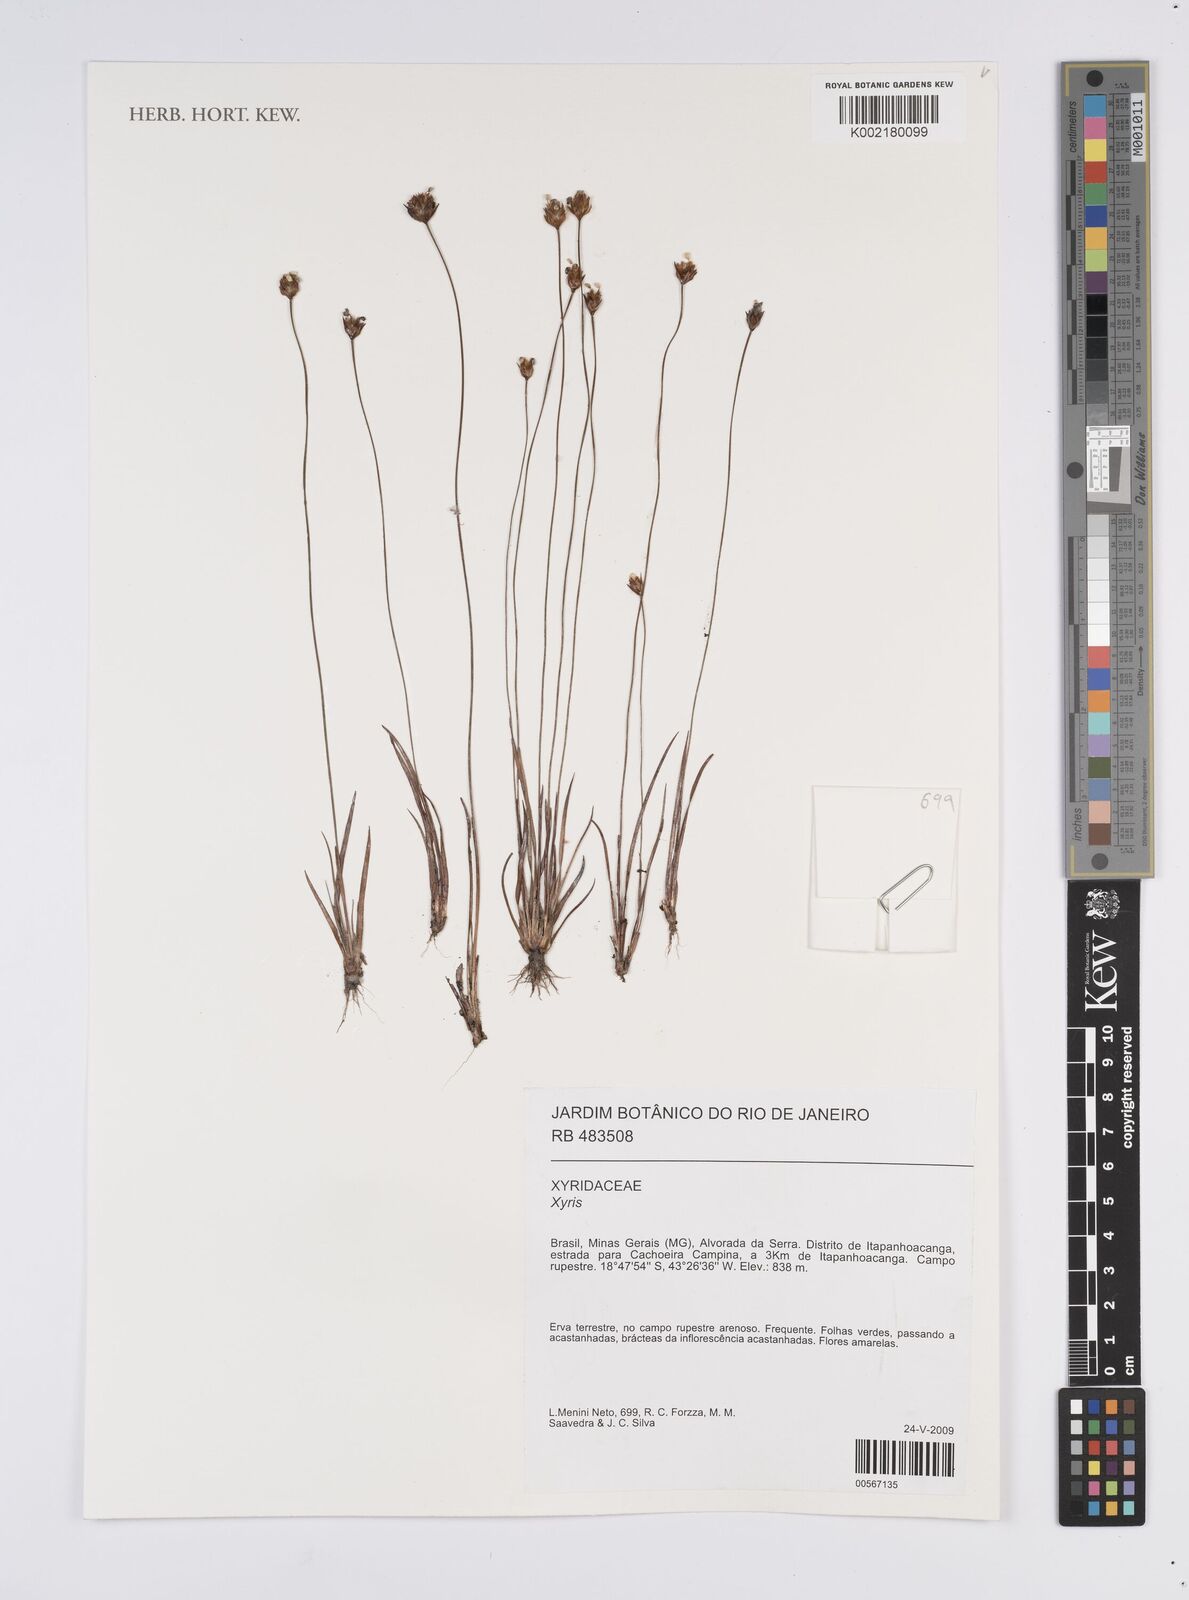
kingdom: Plantae
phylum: Tracheophyta
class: Liliopsida
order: Poales
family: Xyridaceae
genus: Xyris
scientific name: Xyris
